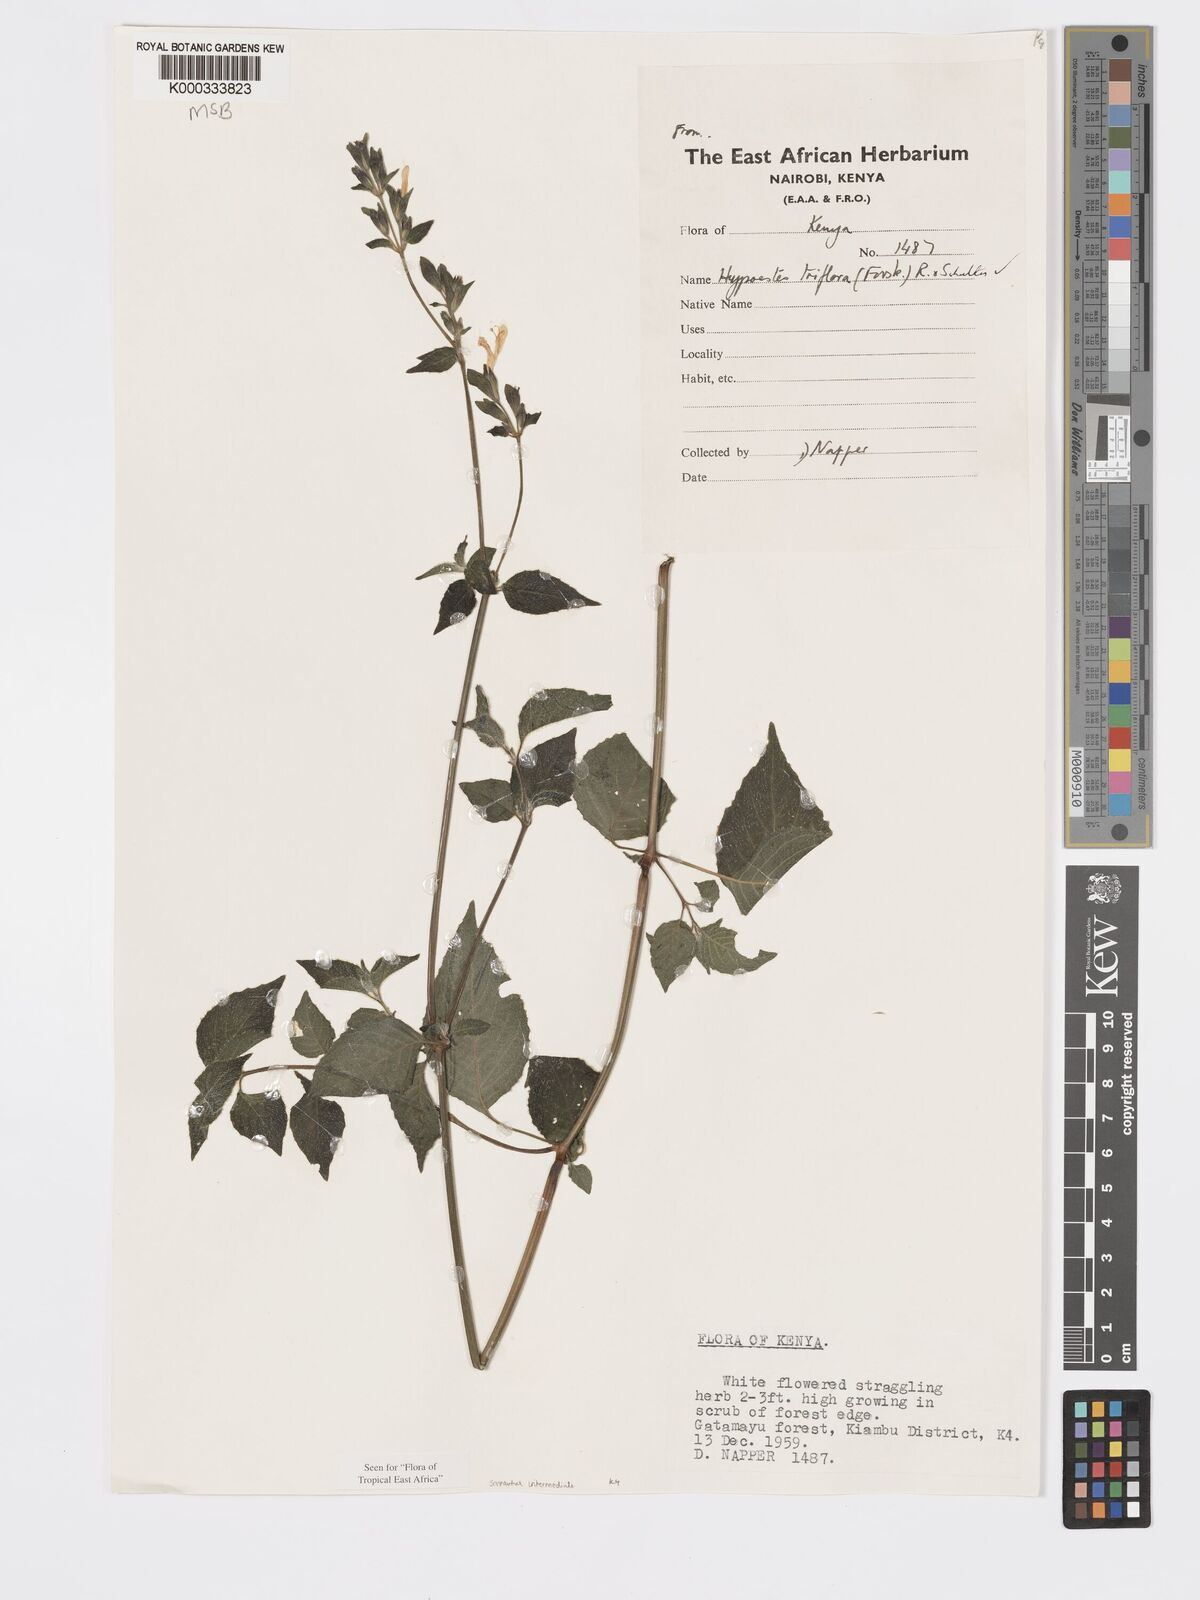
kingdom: Plantae
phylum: Tracheophyta
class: Magnoliopsida
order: Lamiales
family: Acanthaceae
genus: Hypoestes
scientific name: Hypoestes triflora
